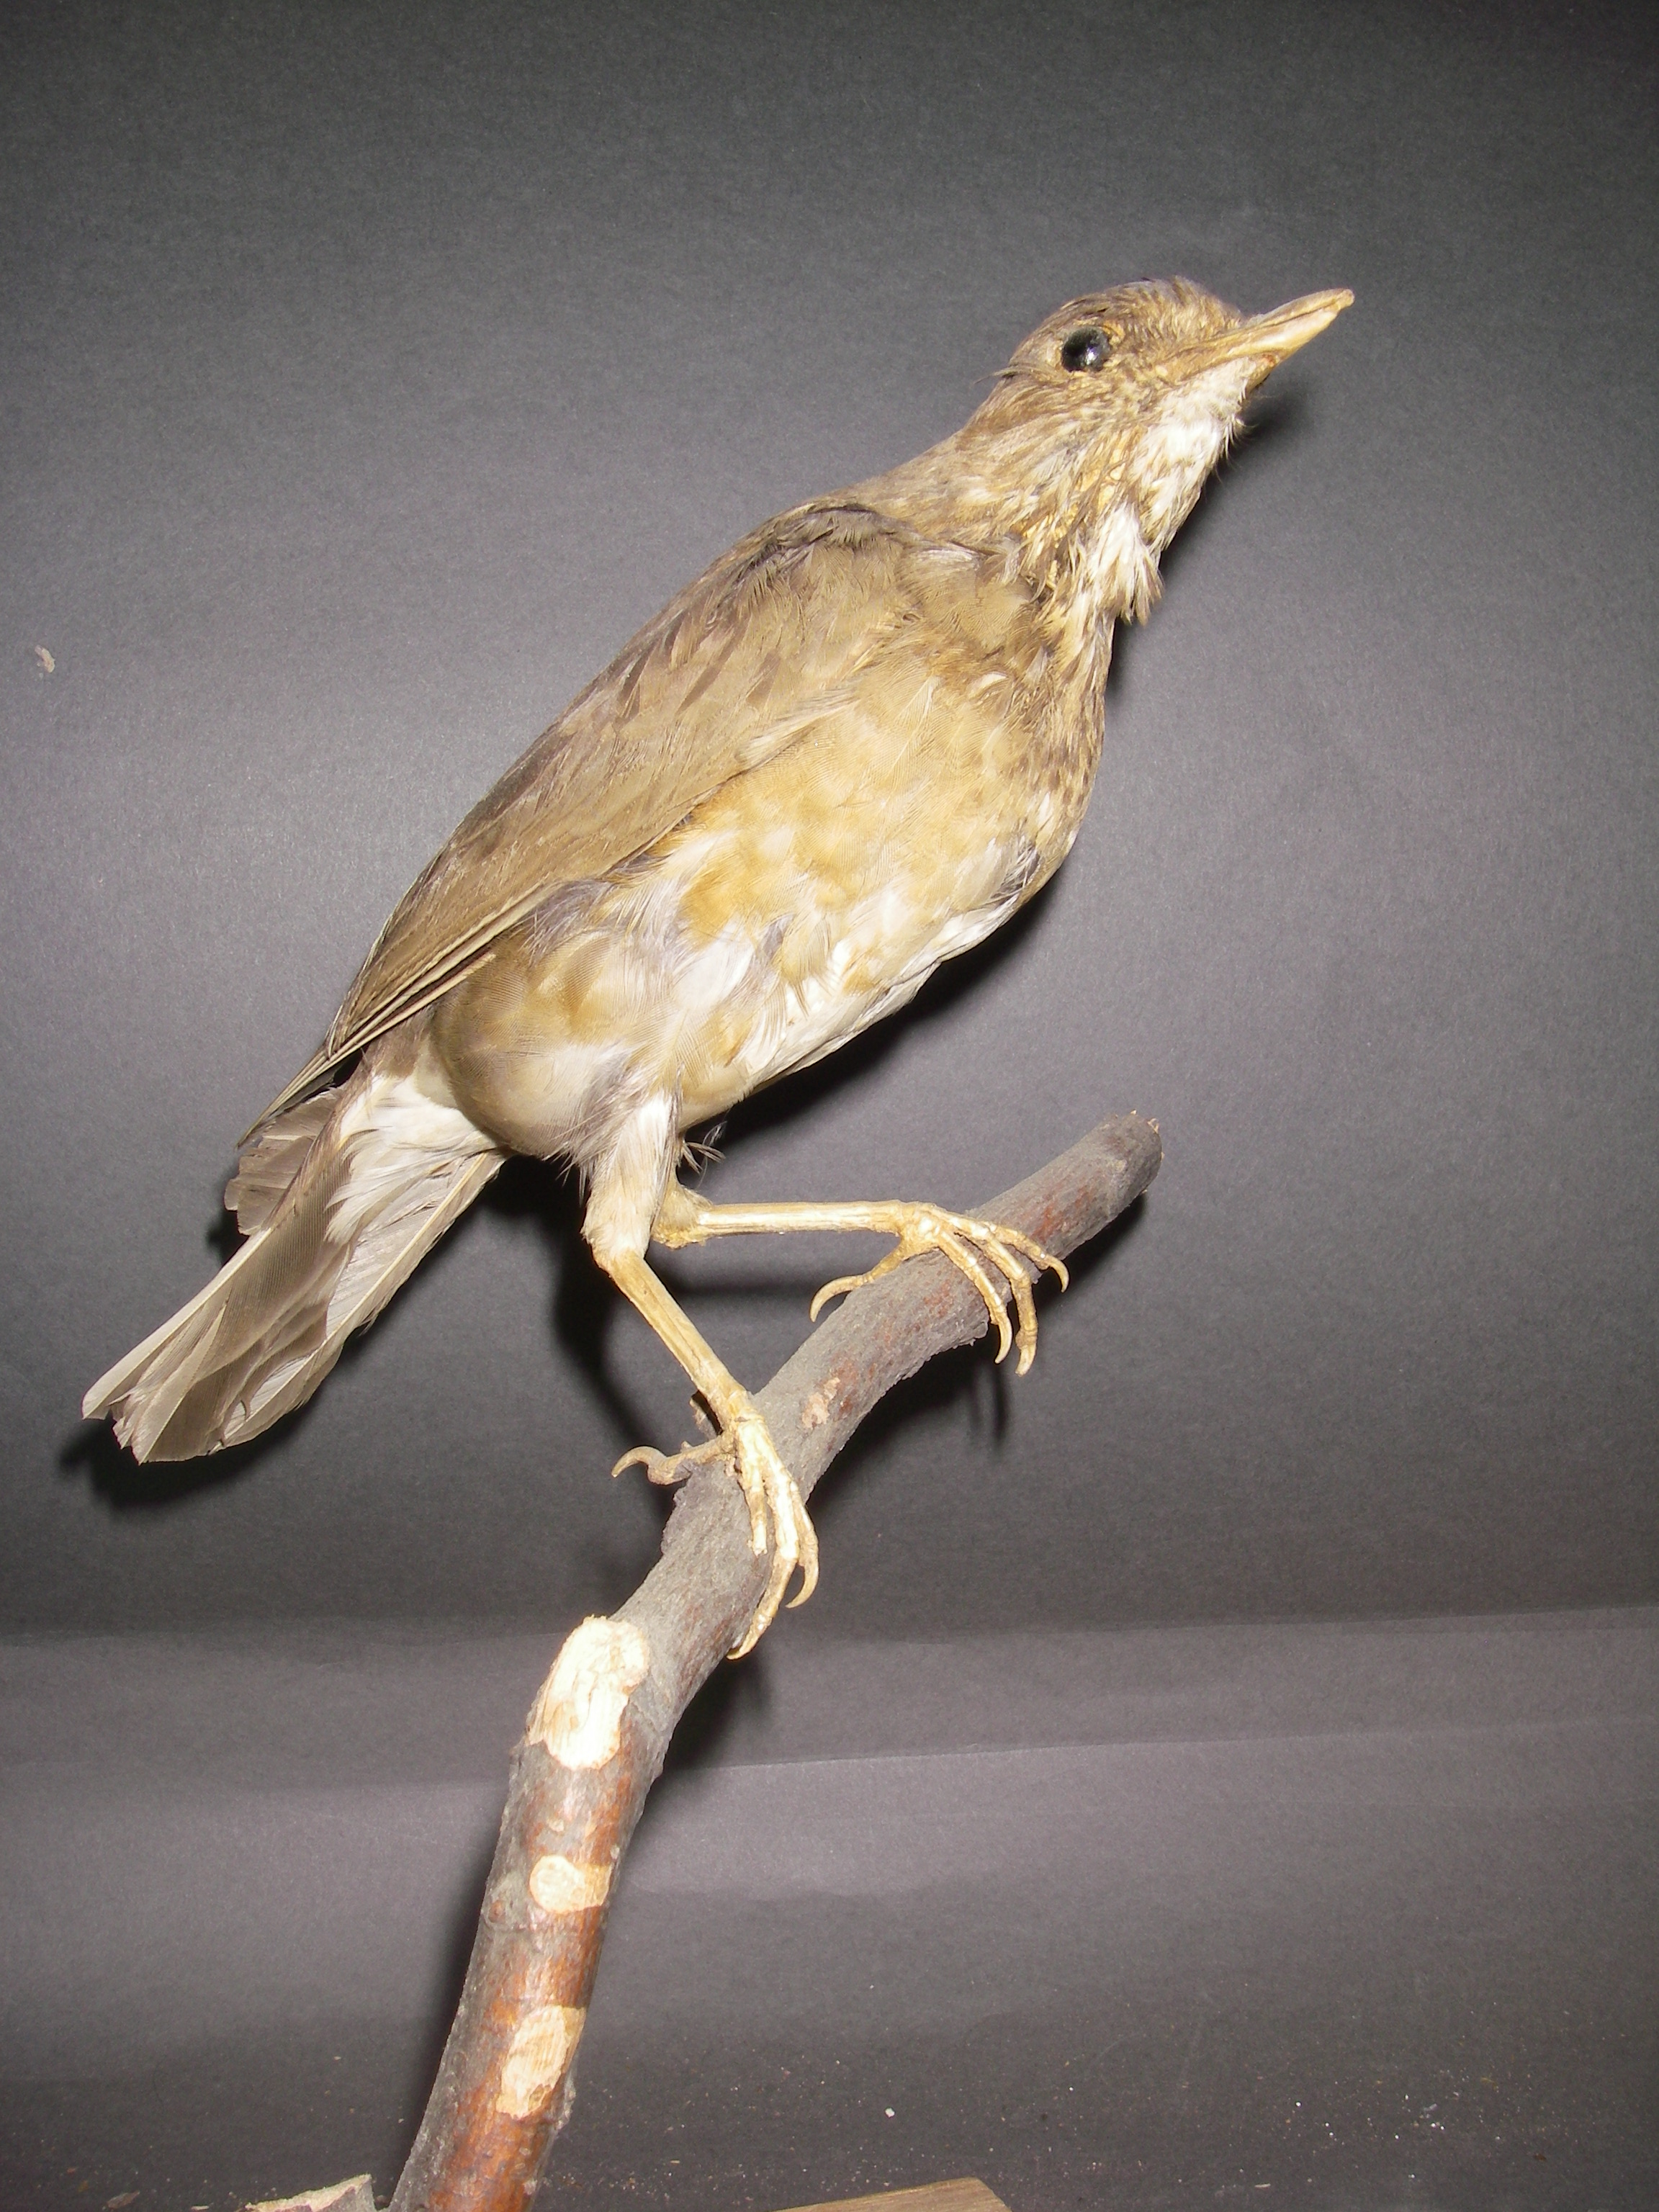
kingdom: Animalia
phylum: Chordata
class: Aves
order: Passeriformes
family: Turdidae
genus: Turdus
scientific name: Turdus unicolor
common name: Tickell's thrush
